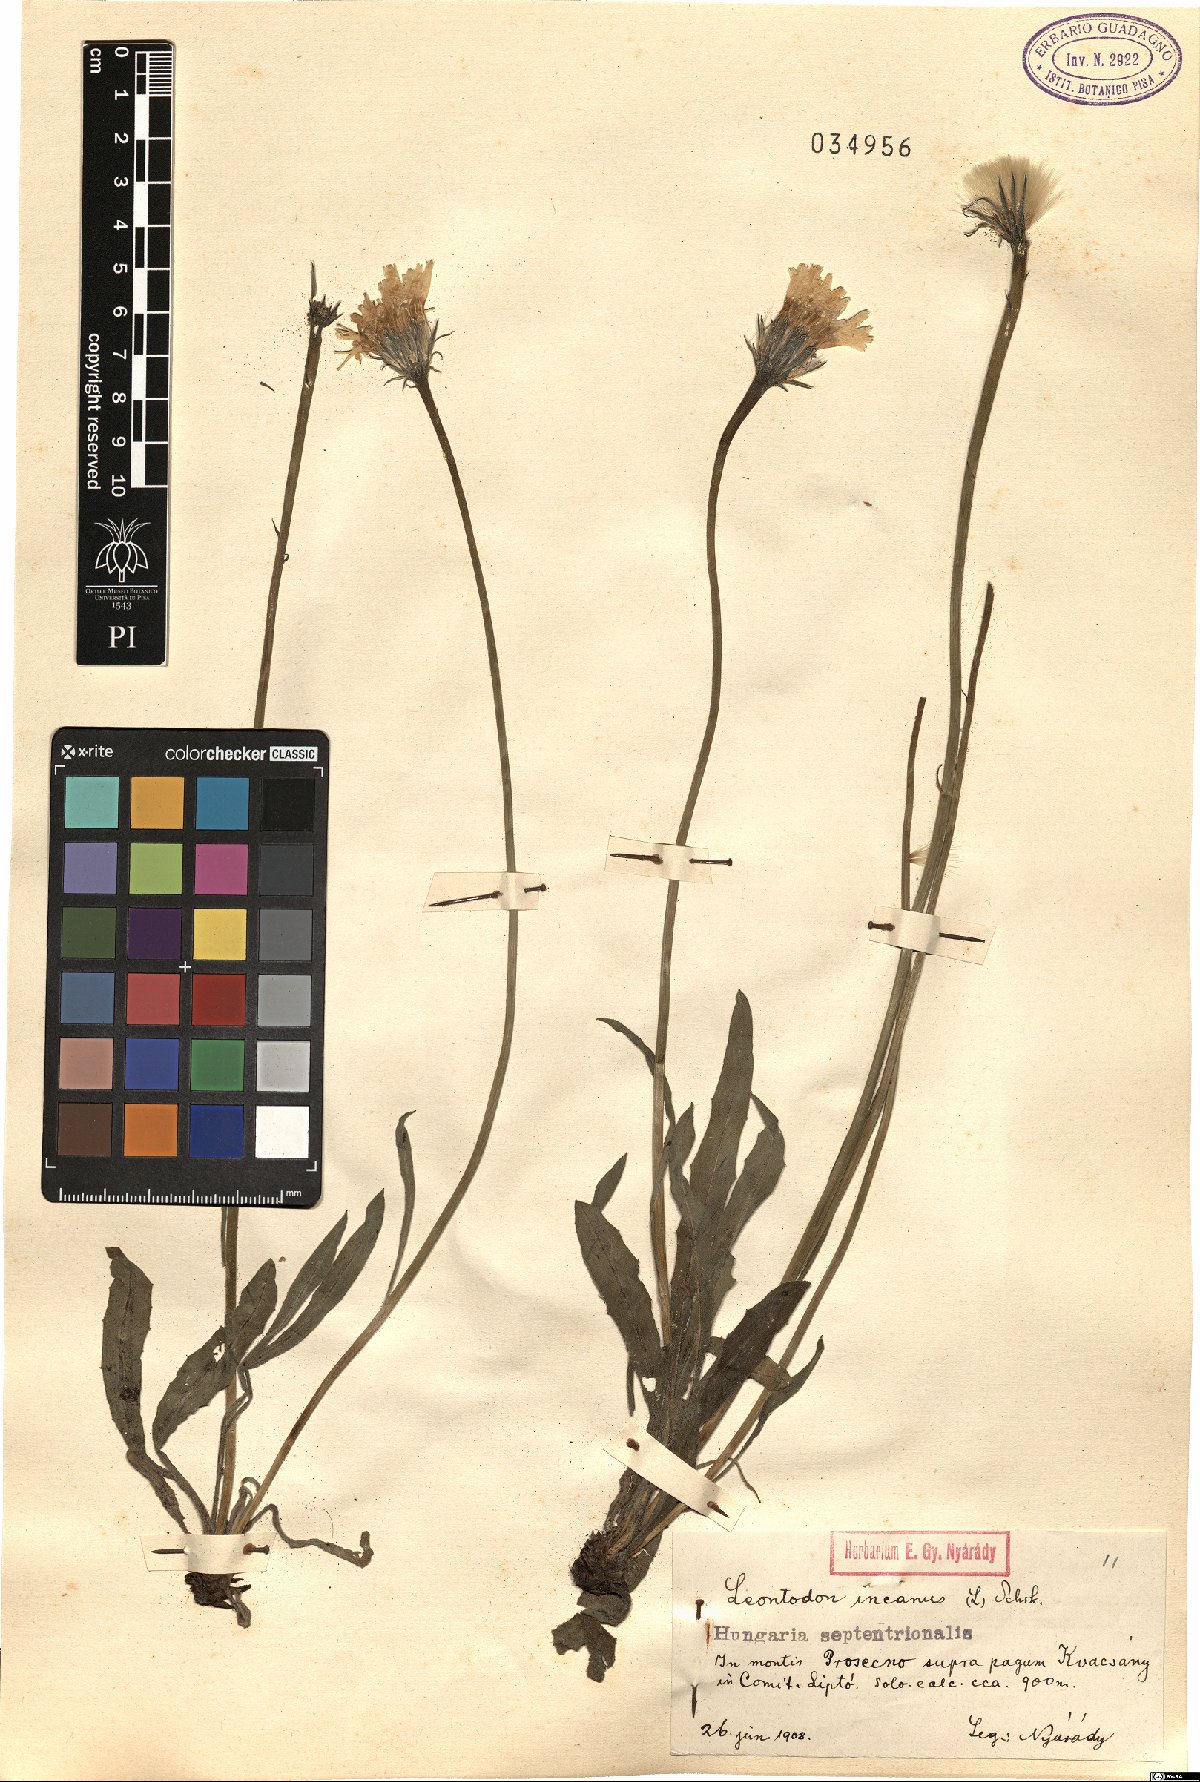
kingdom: Plantae
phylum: Tracheophyta
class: Magnoliopsida
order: Asterales
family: Asteraceae
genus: Leontodon
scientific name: Leontodon incanus
